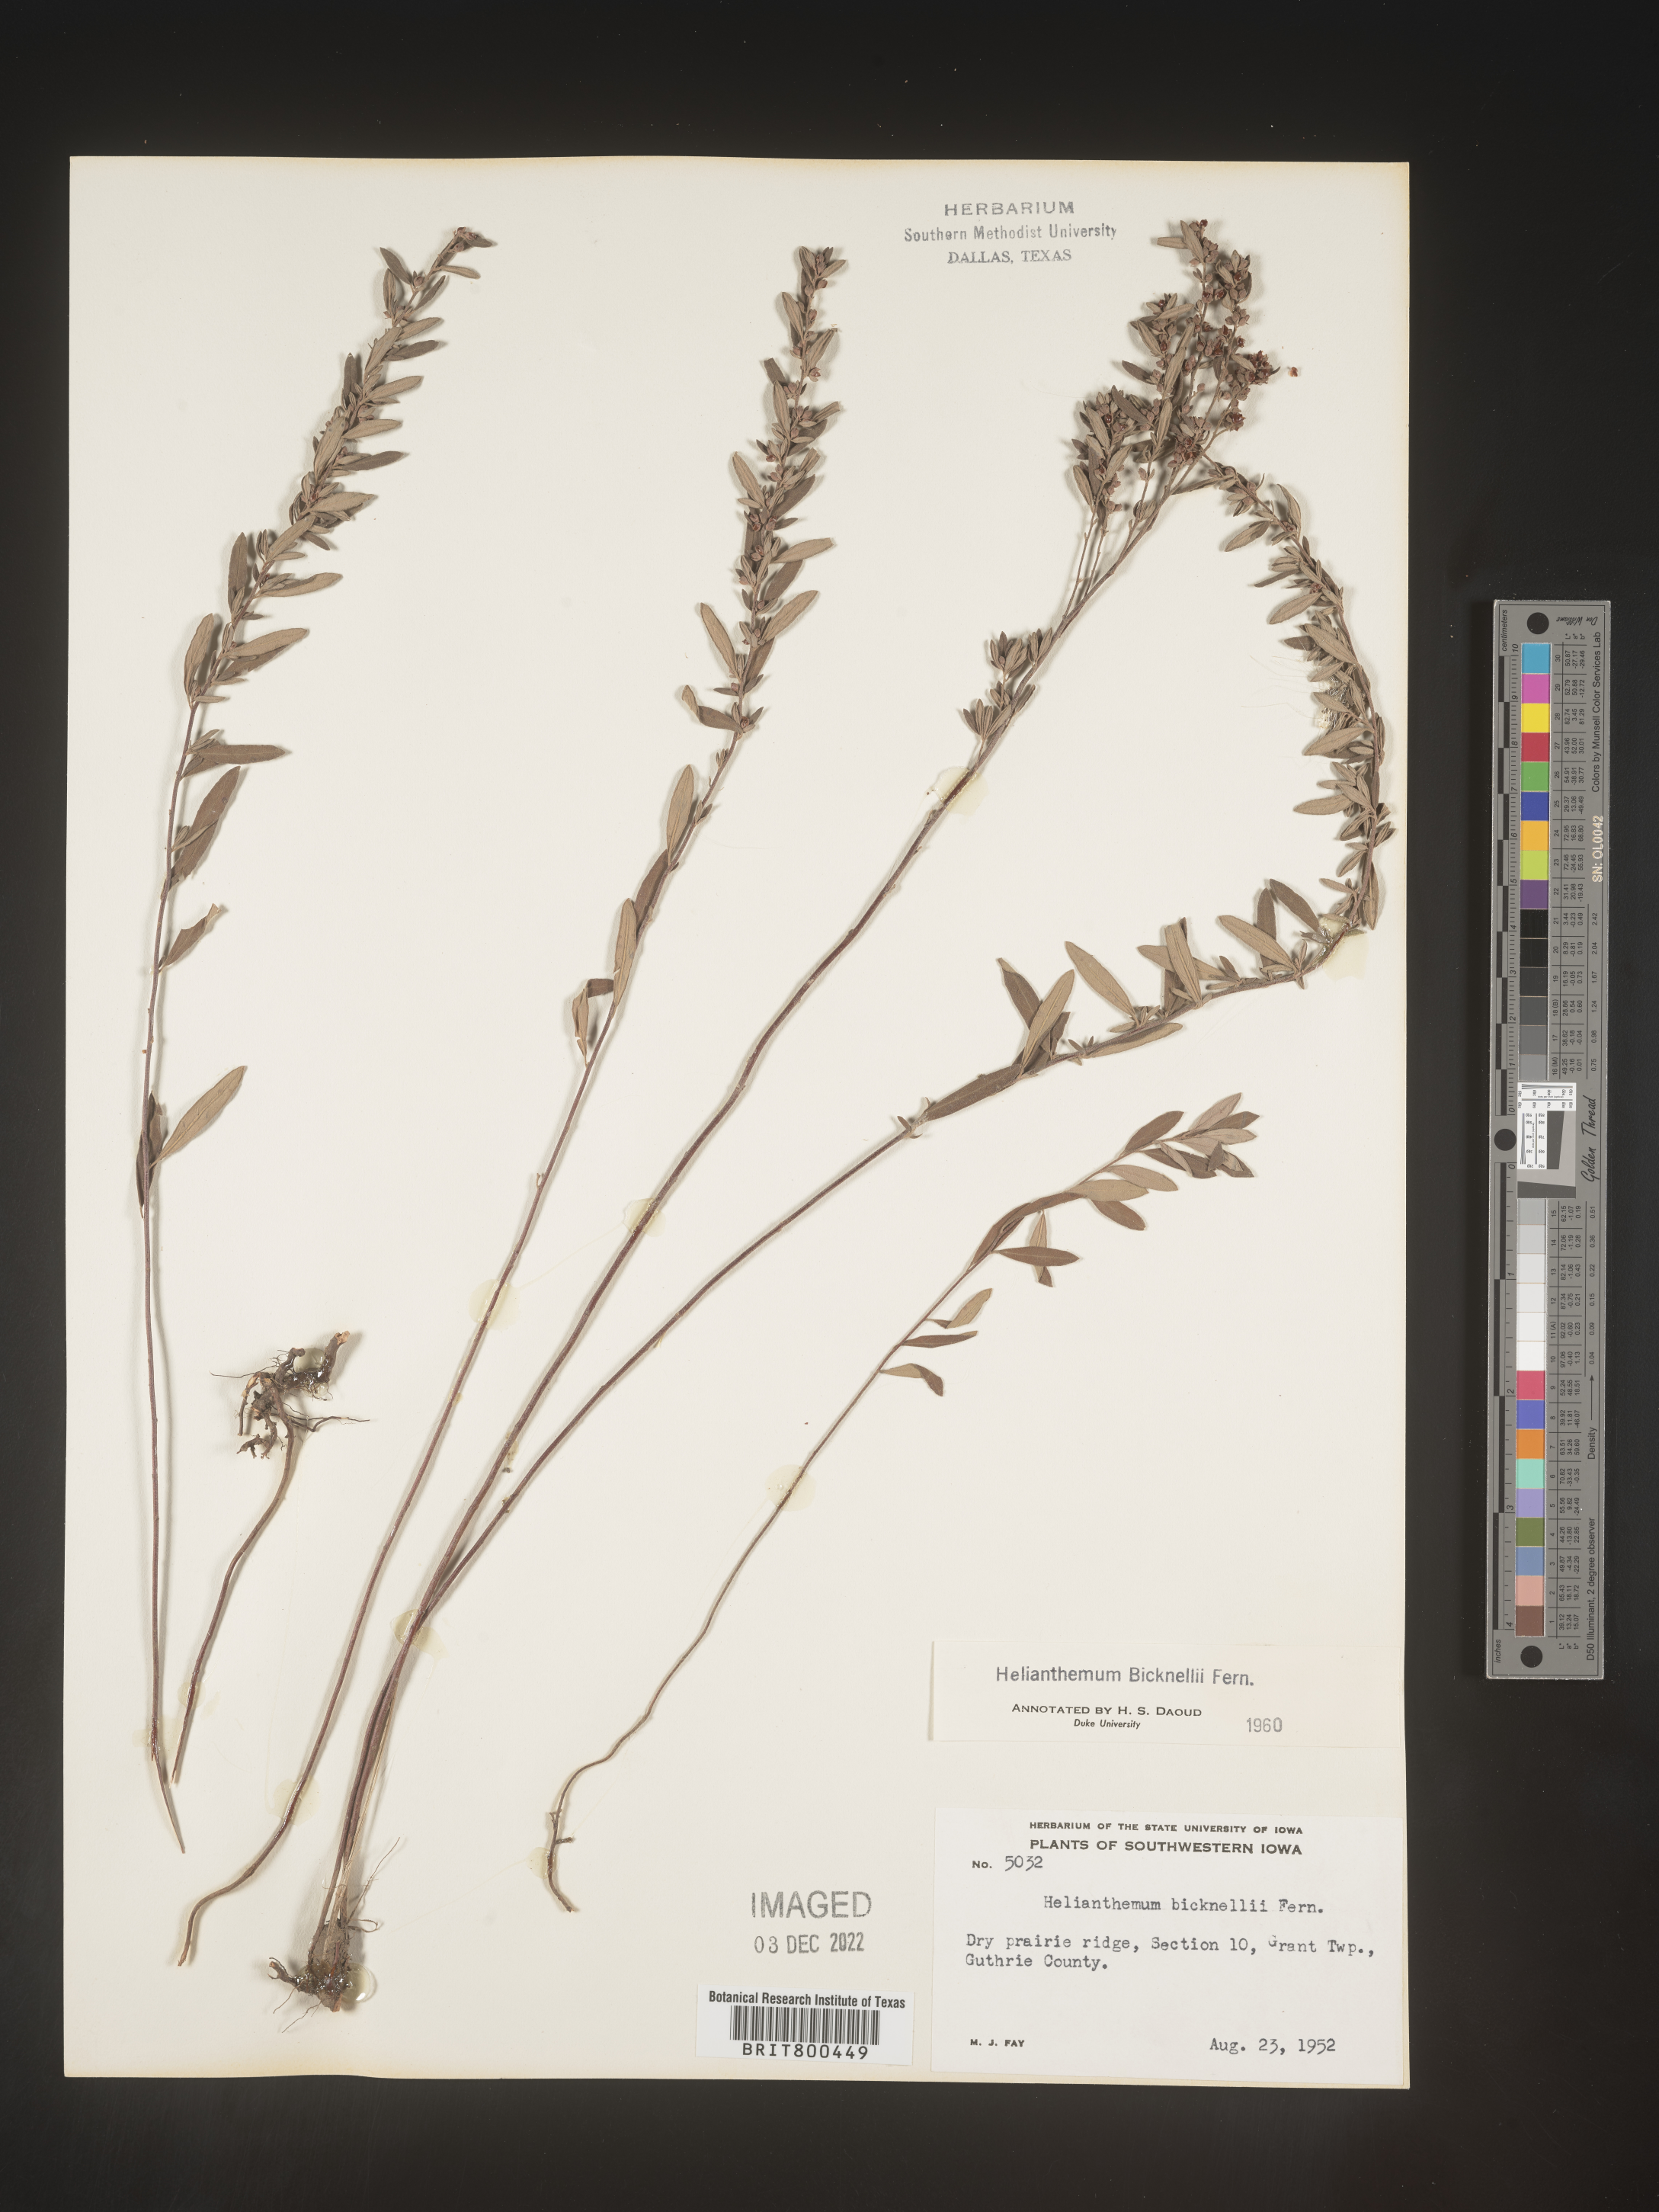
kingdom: Plantae
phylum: Tracheophyta
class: Magnoliopsida
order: Malvales
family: Cistaceae
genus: Helianthemum
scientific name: Helianthemum
